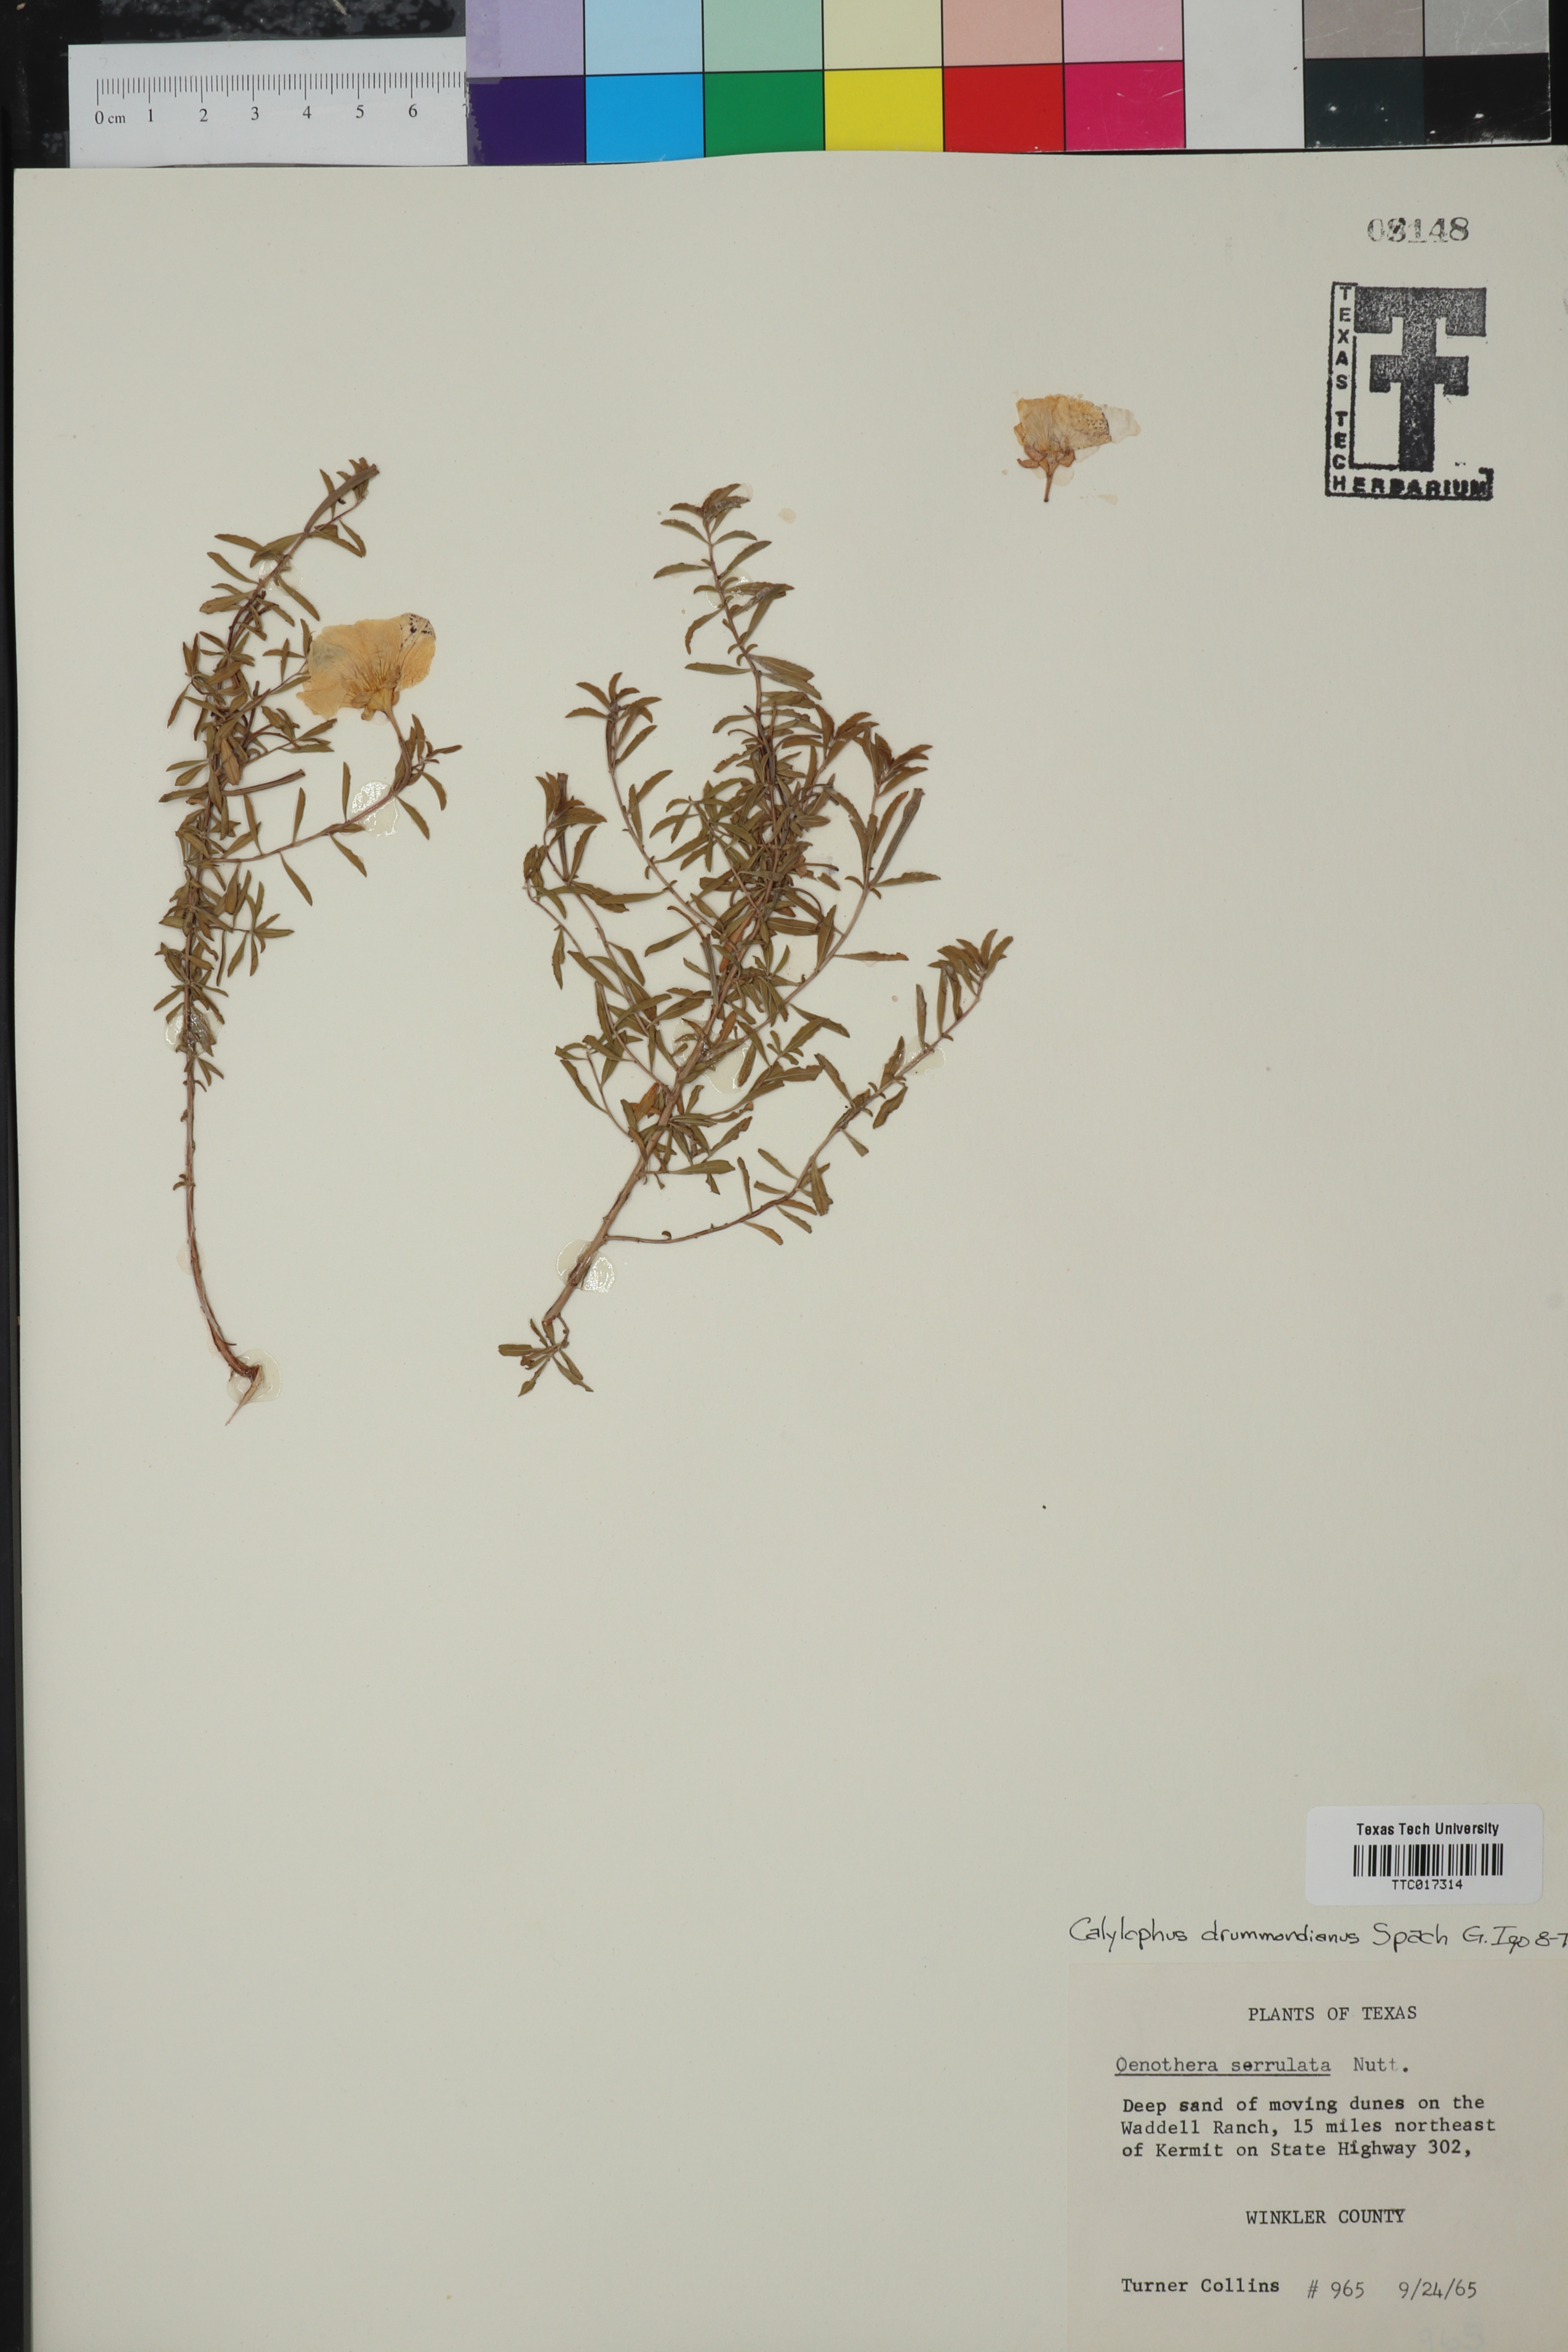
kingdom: Plantae
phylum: Tracheophyta
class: Magnoliopsida
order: Myrtales
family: Onagraceae
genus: Oenothera
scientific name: Oenothera serrulata
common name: Half-shrub calylophus
